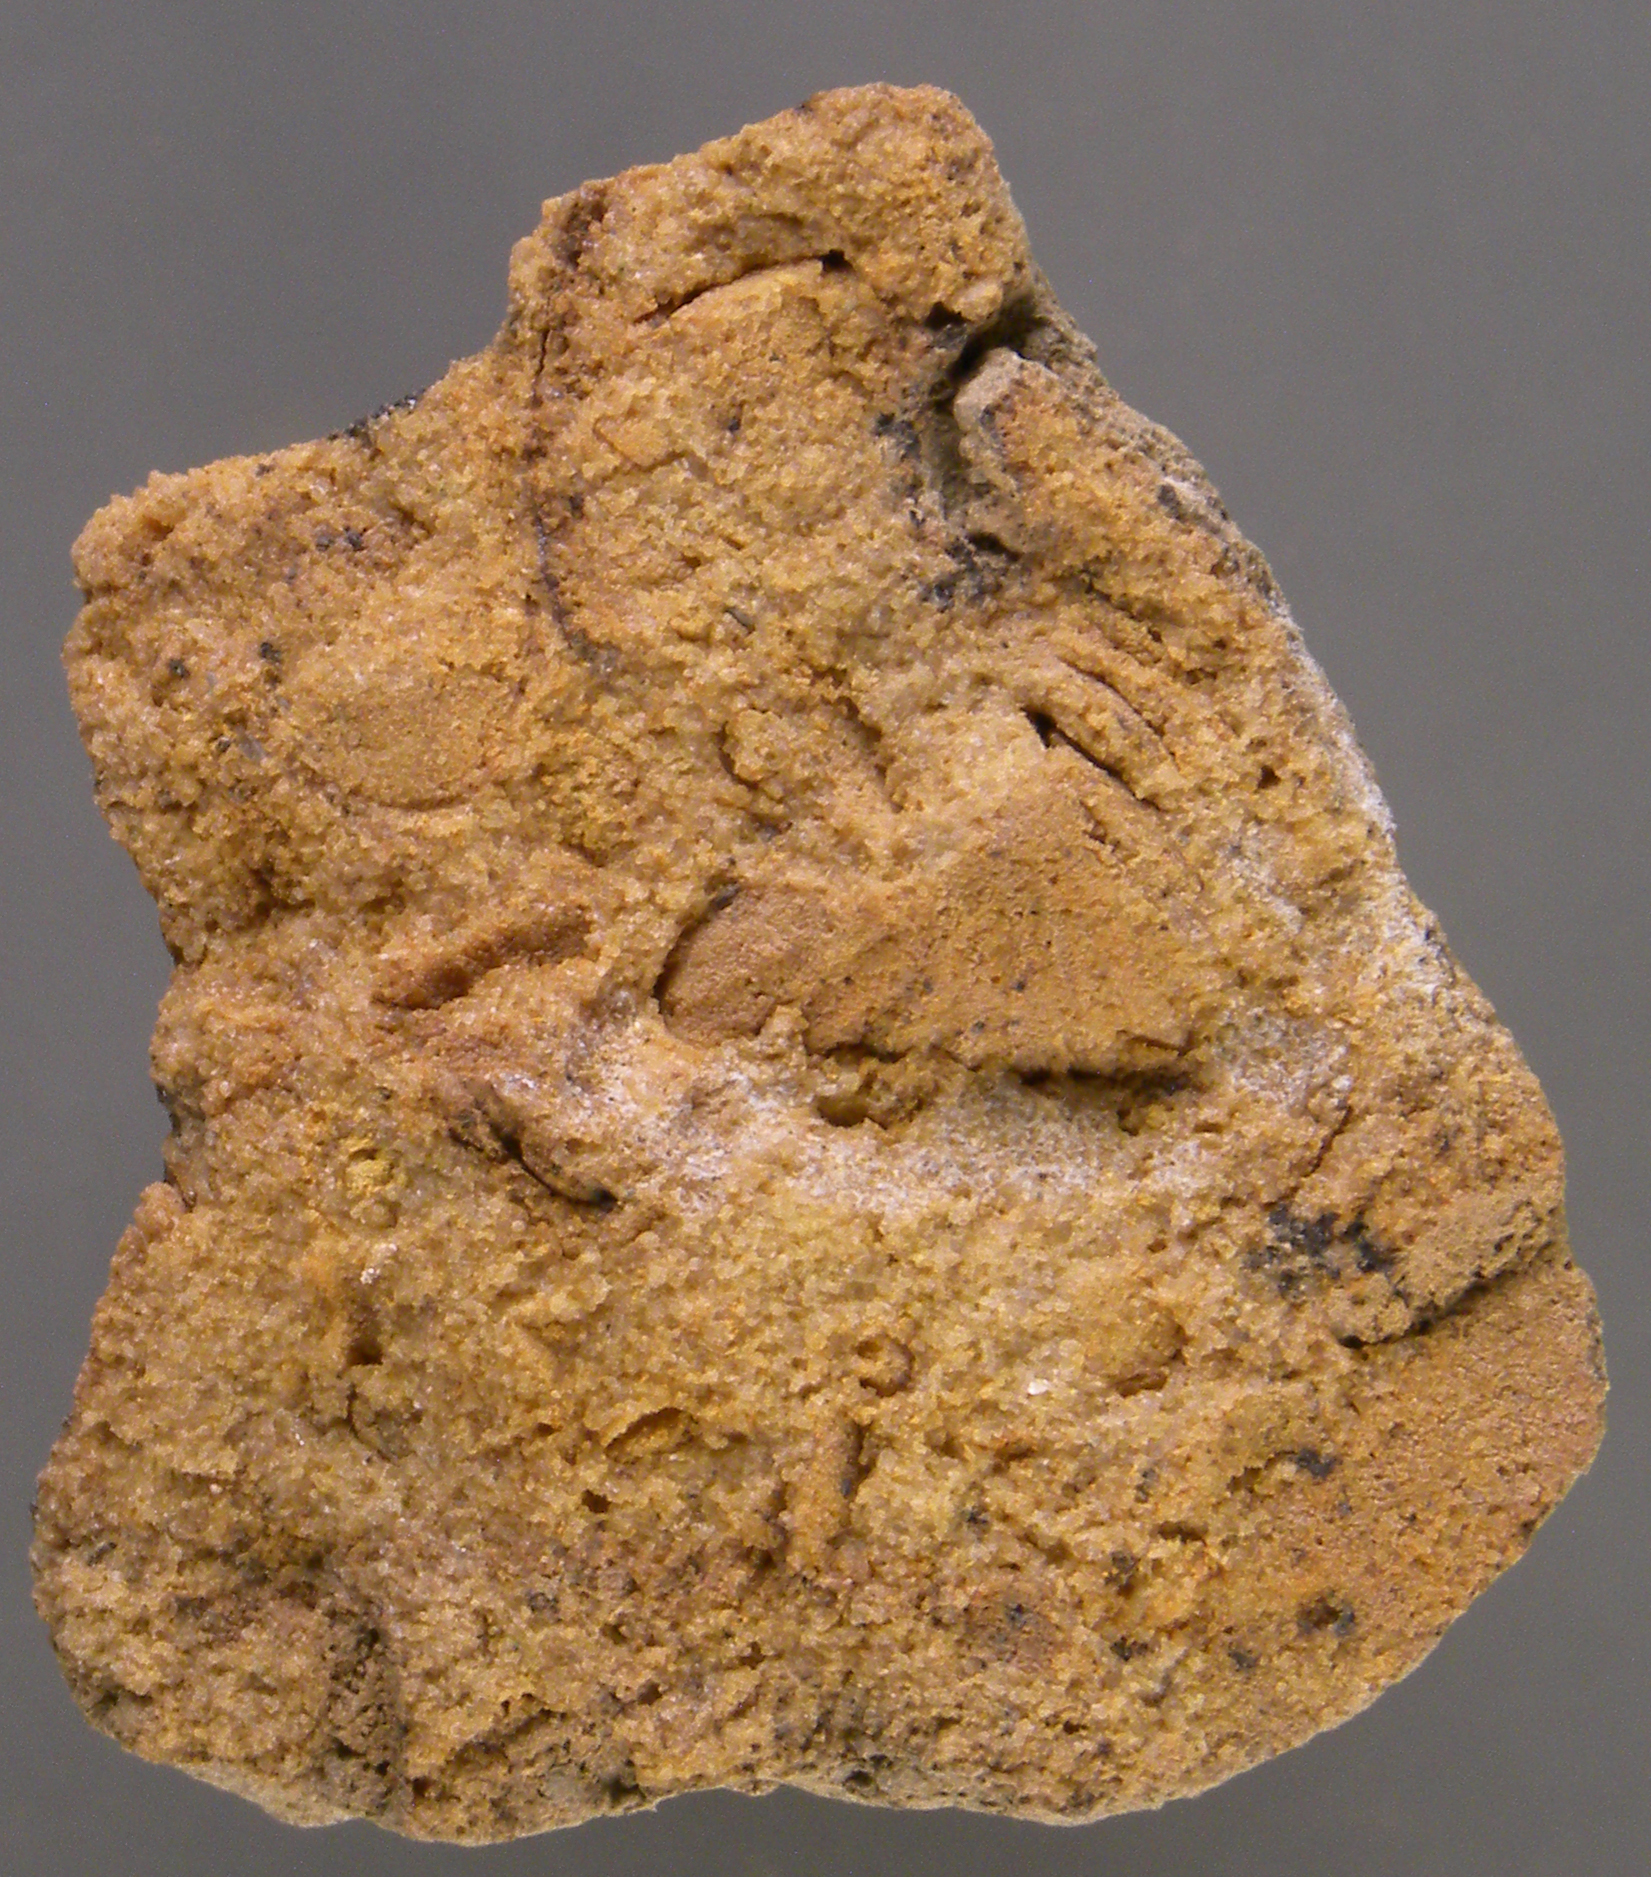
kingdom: Animalia
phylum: Brachiopoda
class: Rhynchonellata
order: Rhynchonellida
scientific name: Rhynchonellida
